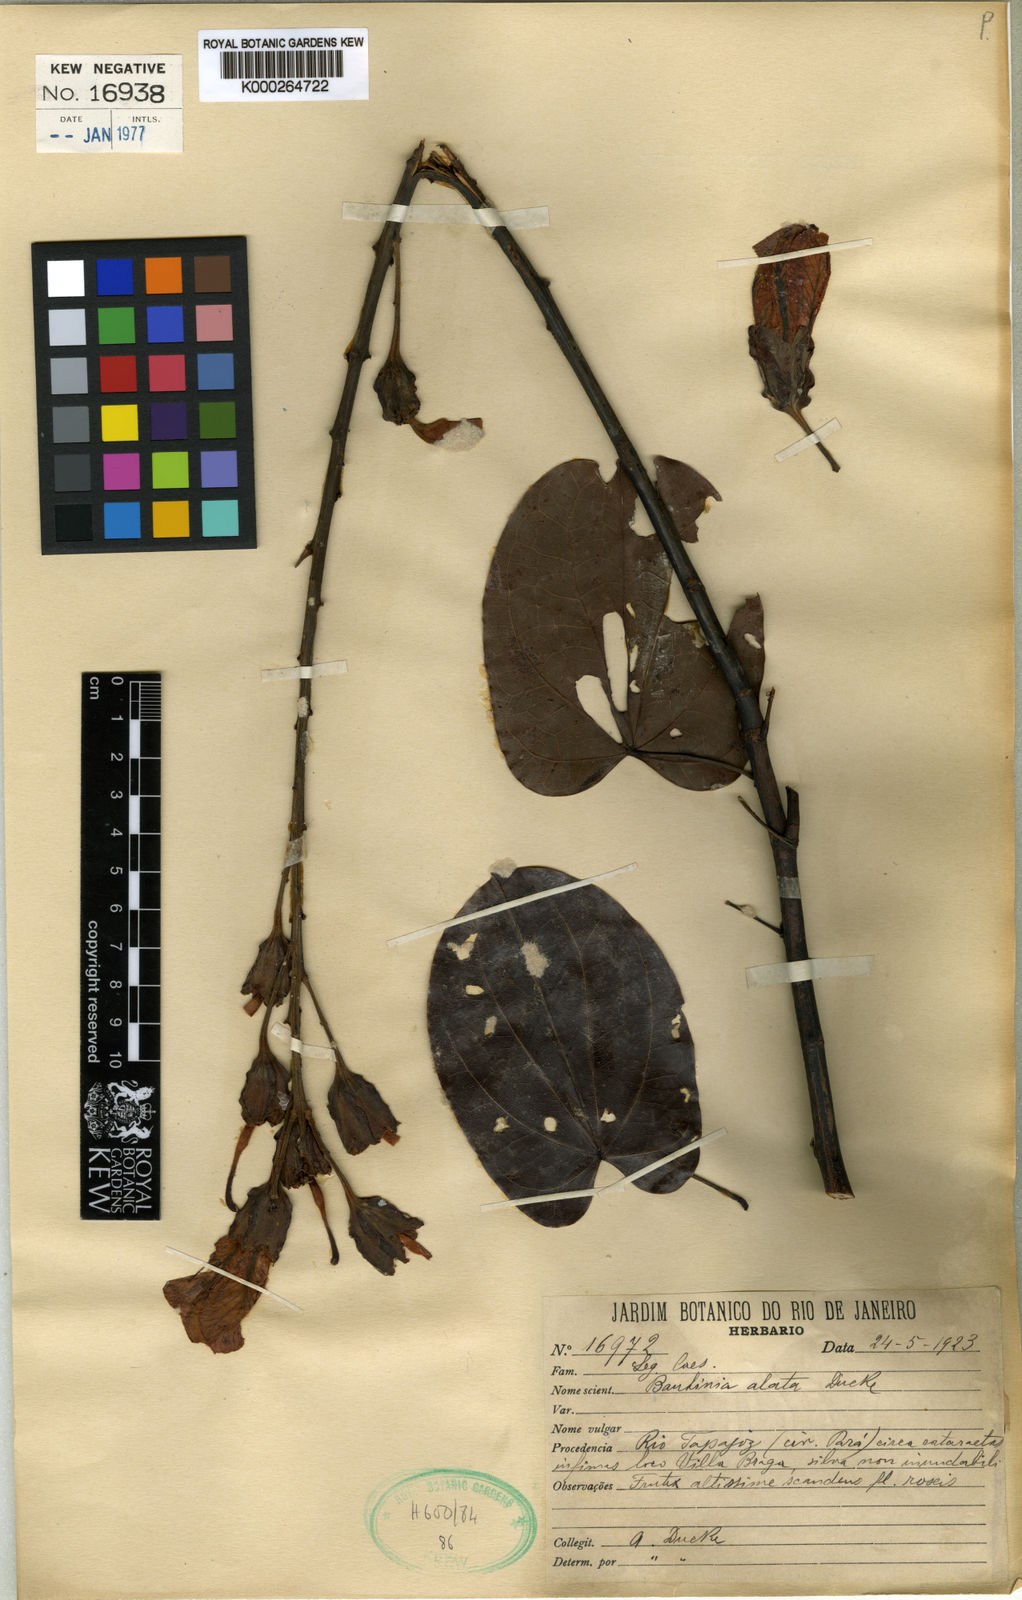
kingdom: Plantae
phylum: Tracheophyta
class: Magnoliopsida
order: Fabales
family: Fabaceae
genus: Schnella
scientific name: Schnella alata
